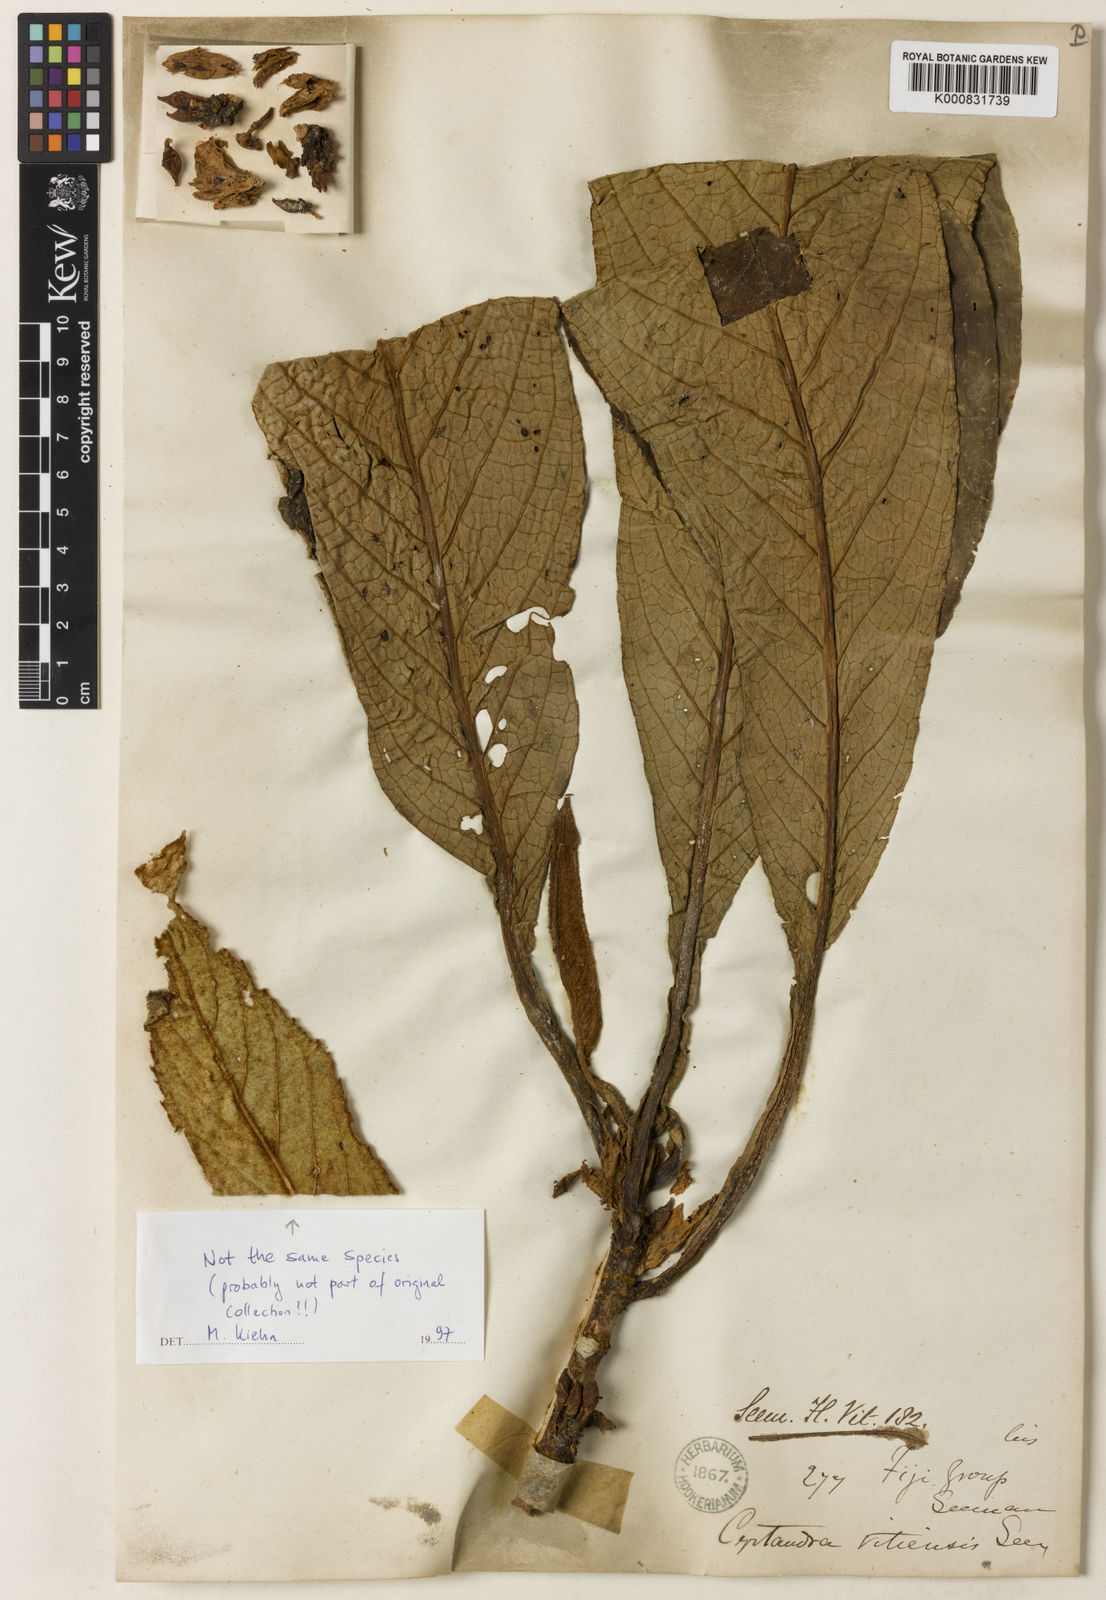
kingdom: Plantae
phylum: Tracheophyta
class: Magnoliopsida
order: Lamiales
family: Gesneriaceae
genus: Cyrtandra
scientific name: Cyrtandra vitiensis
